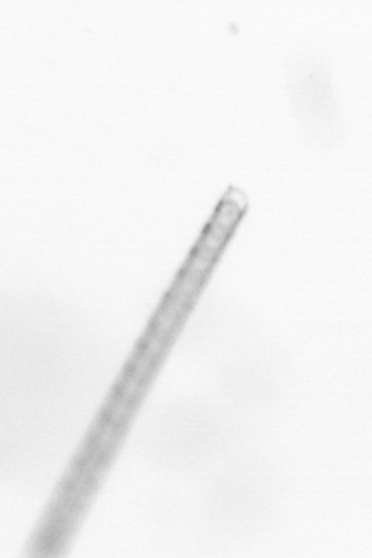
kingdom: Chromista
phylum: Ochrophyta
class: Bacillariophyceae
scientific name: Bacillariophyceae
